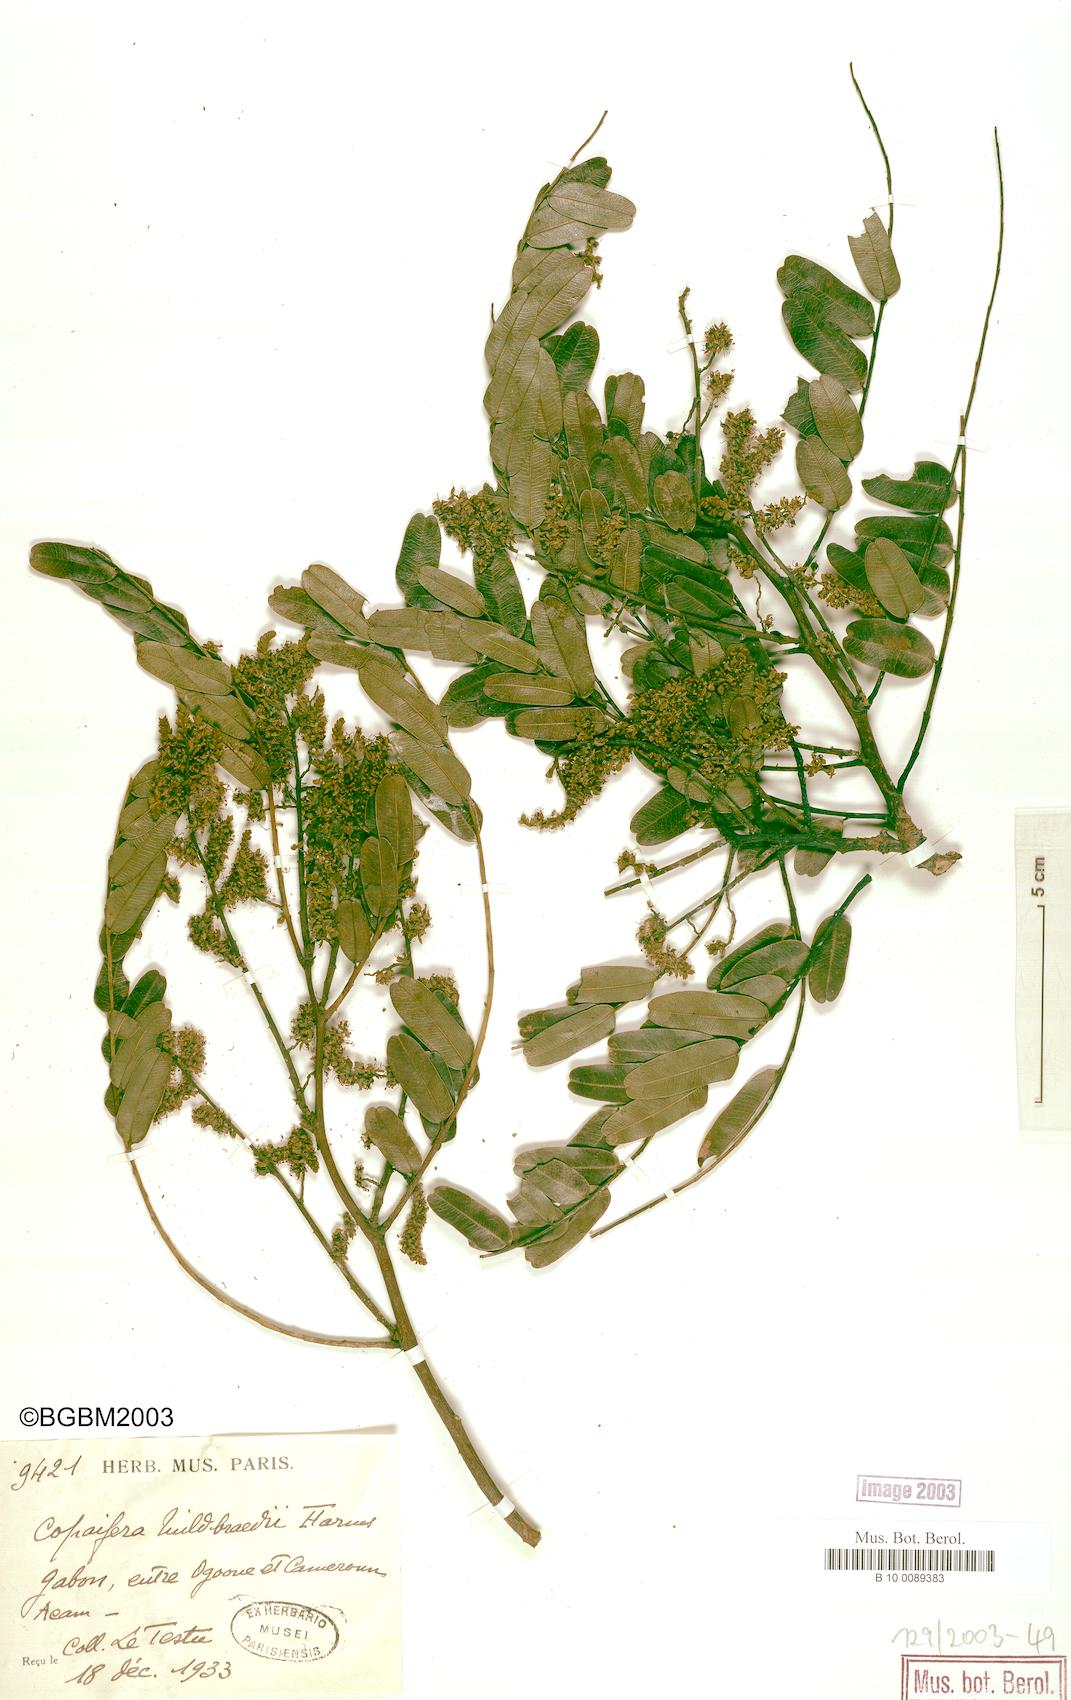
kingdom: Plantae
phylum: Tracheophyta
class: Magnoliopsida
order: Fabales
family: Fabaceae
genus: Copaifera
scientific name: Copaifera mildbraedii
